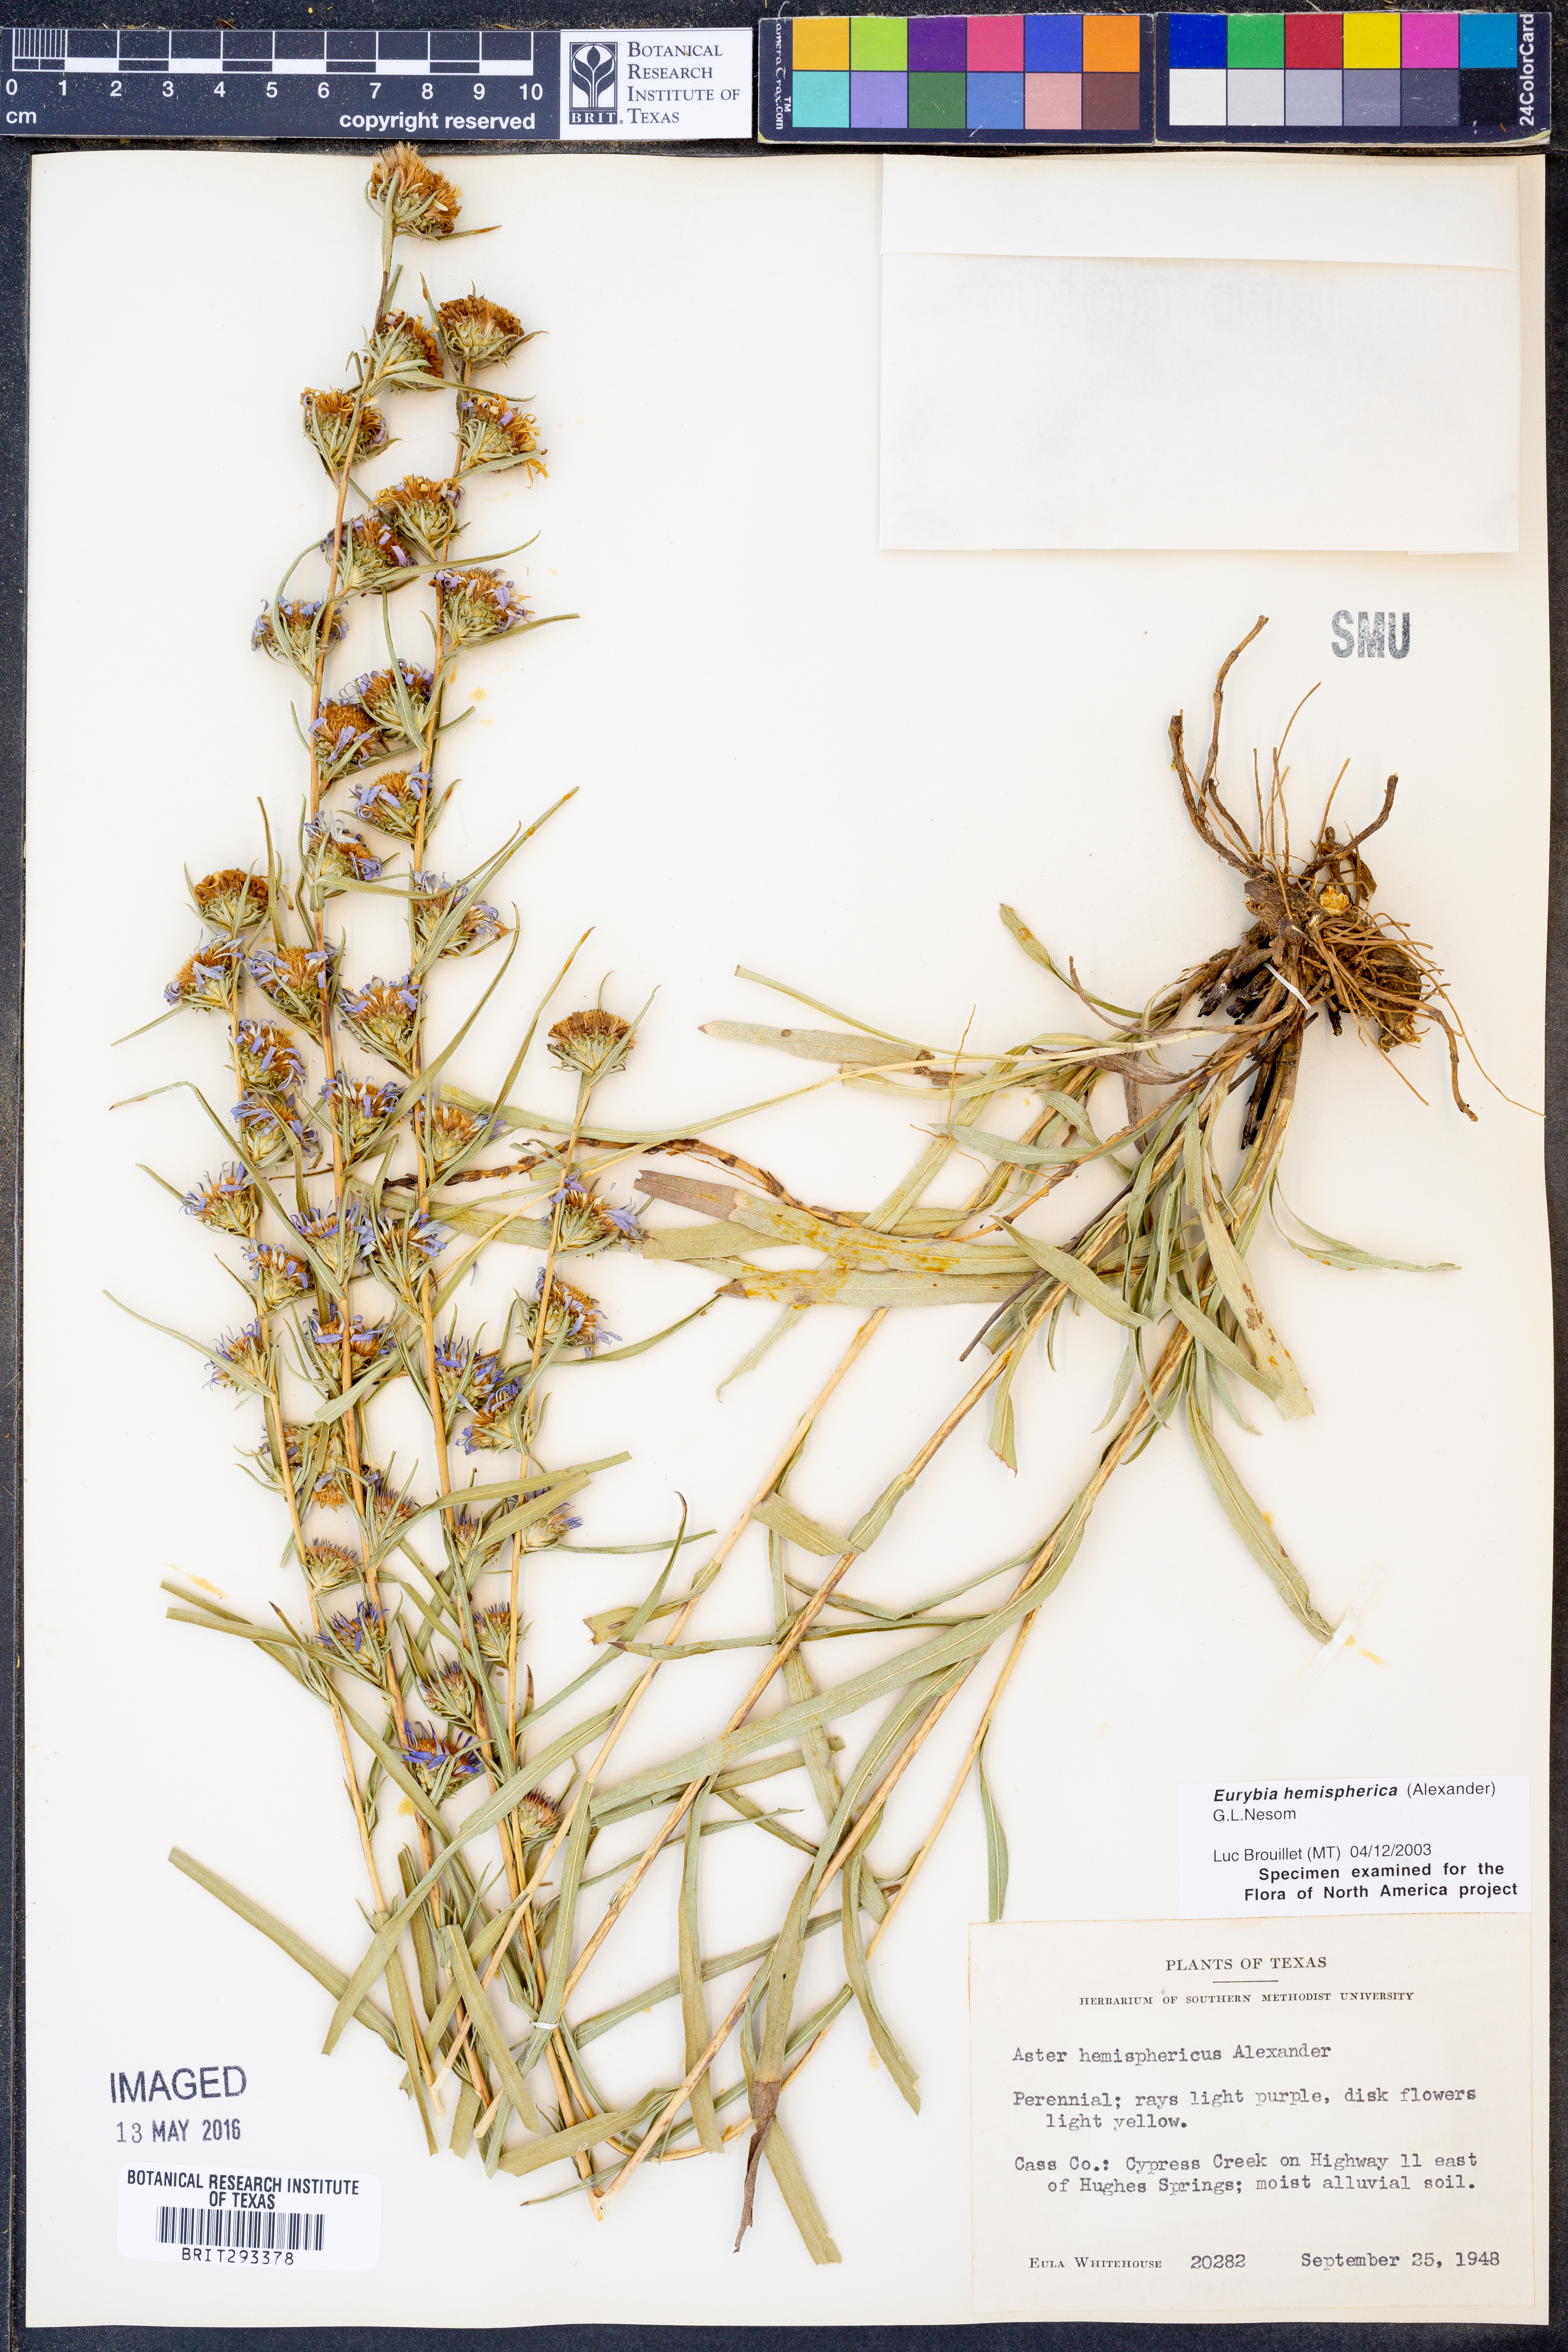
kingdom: Plantae
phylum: Tracheophyta
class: Magnoliopsida
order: Asterales
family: Asteraceae
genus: Eurybia
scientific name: Eurybia hemispherica
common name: Showy aster
